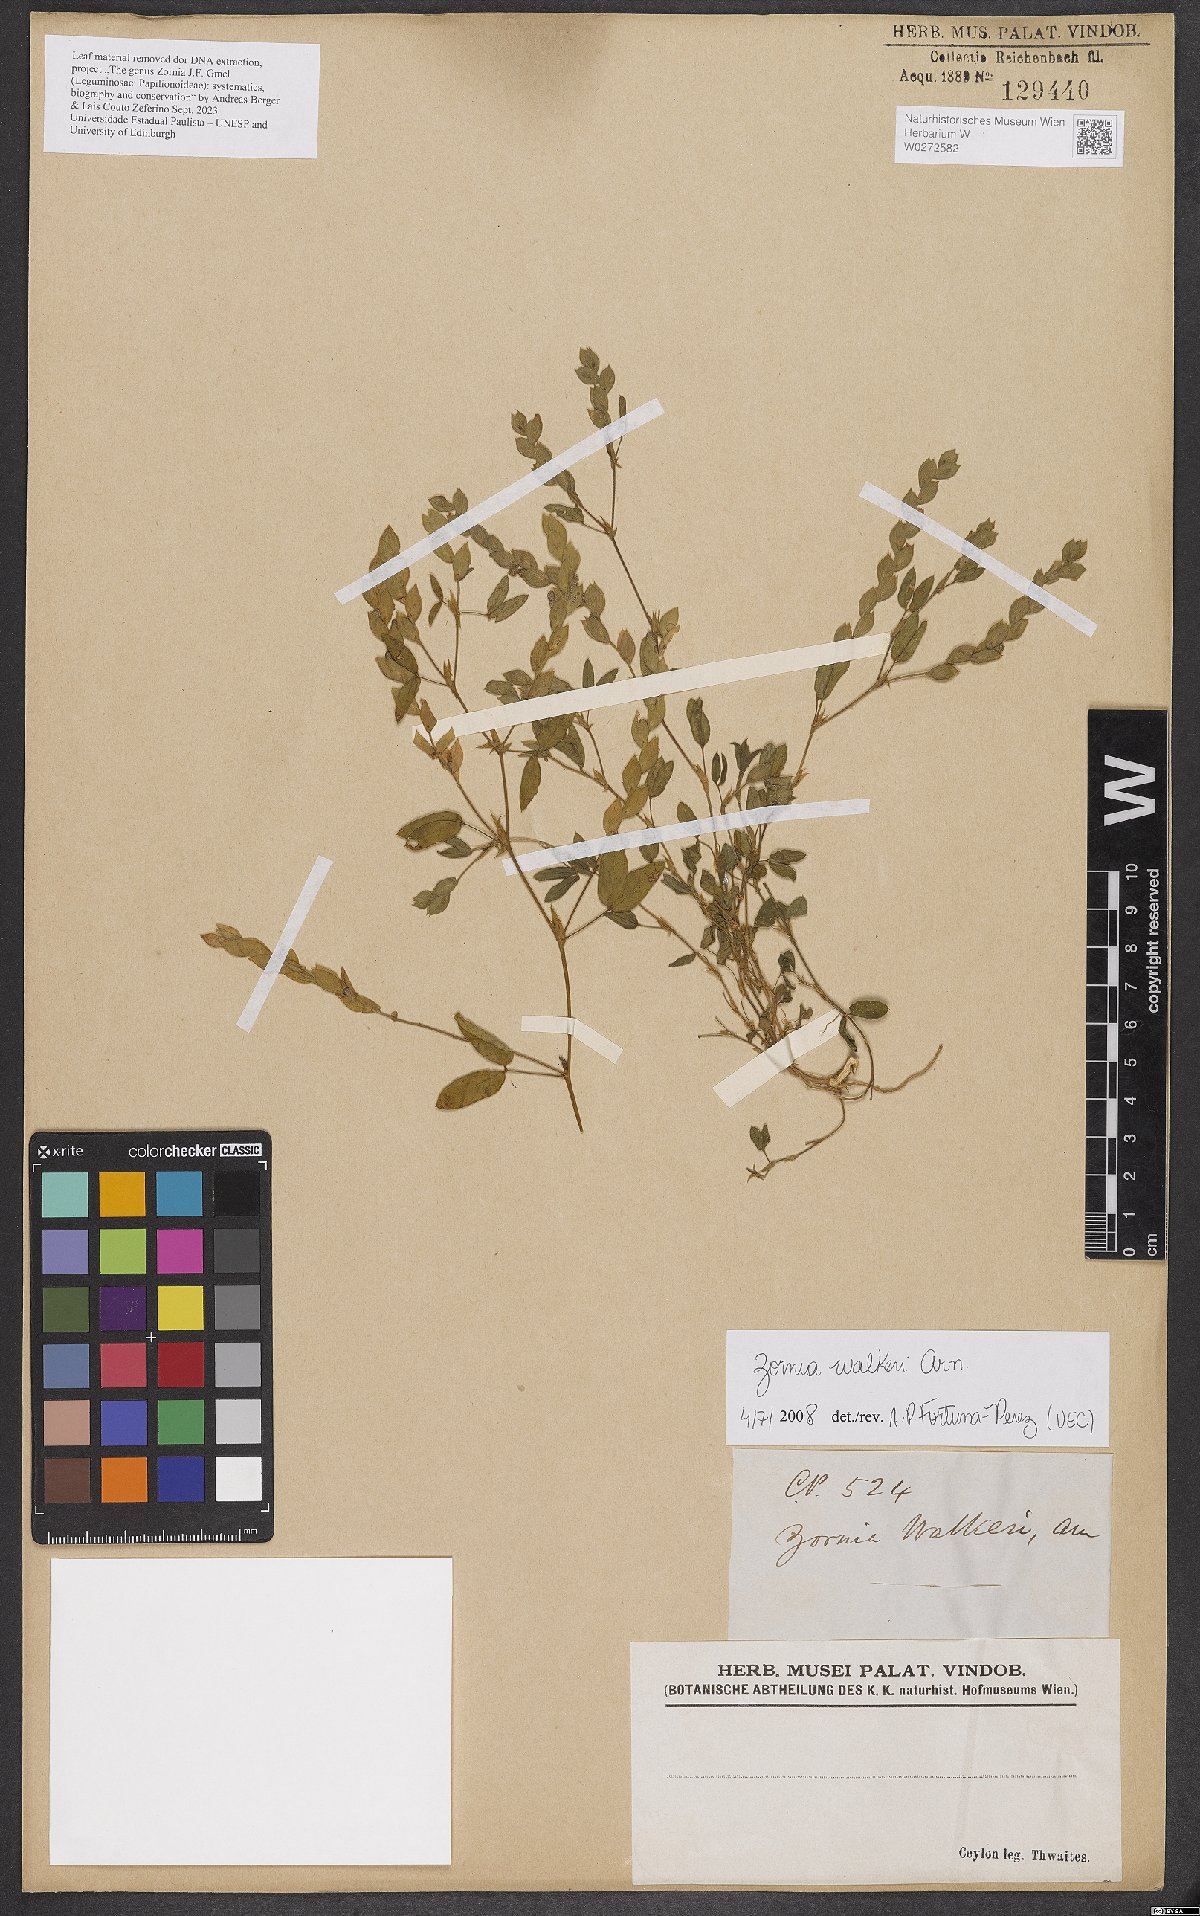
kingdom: Plantae
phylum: Tracheophyta
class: Magnoliopsida
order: Fabales
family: Fabaceae
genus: Zornia
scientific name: Zornia walkeri
